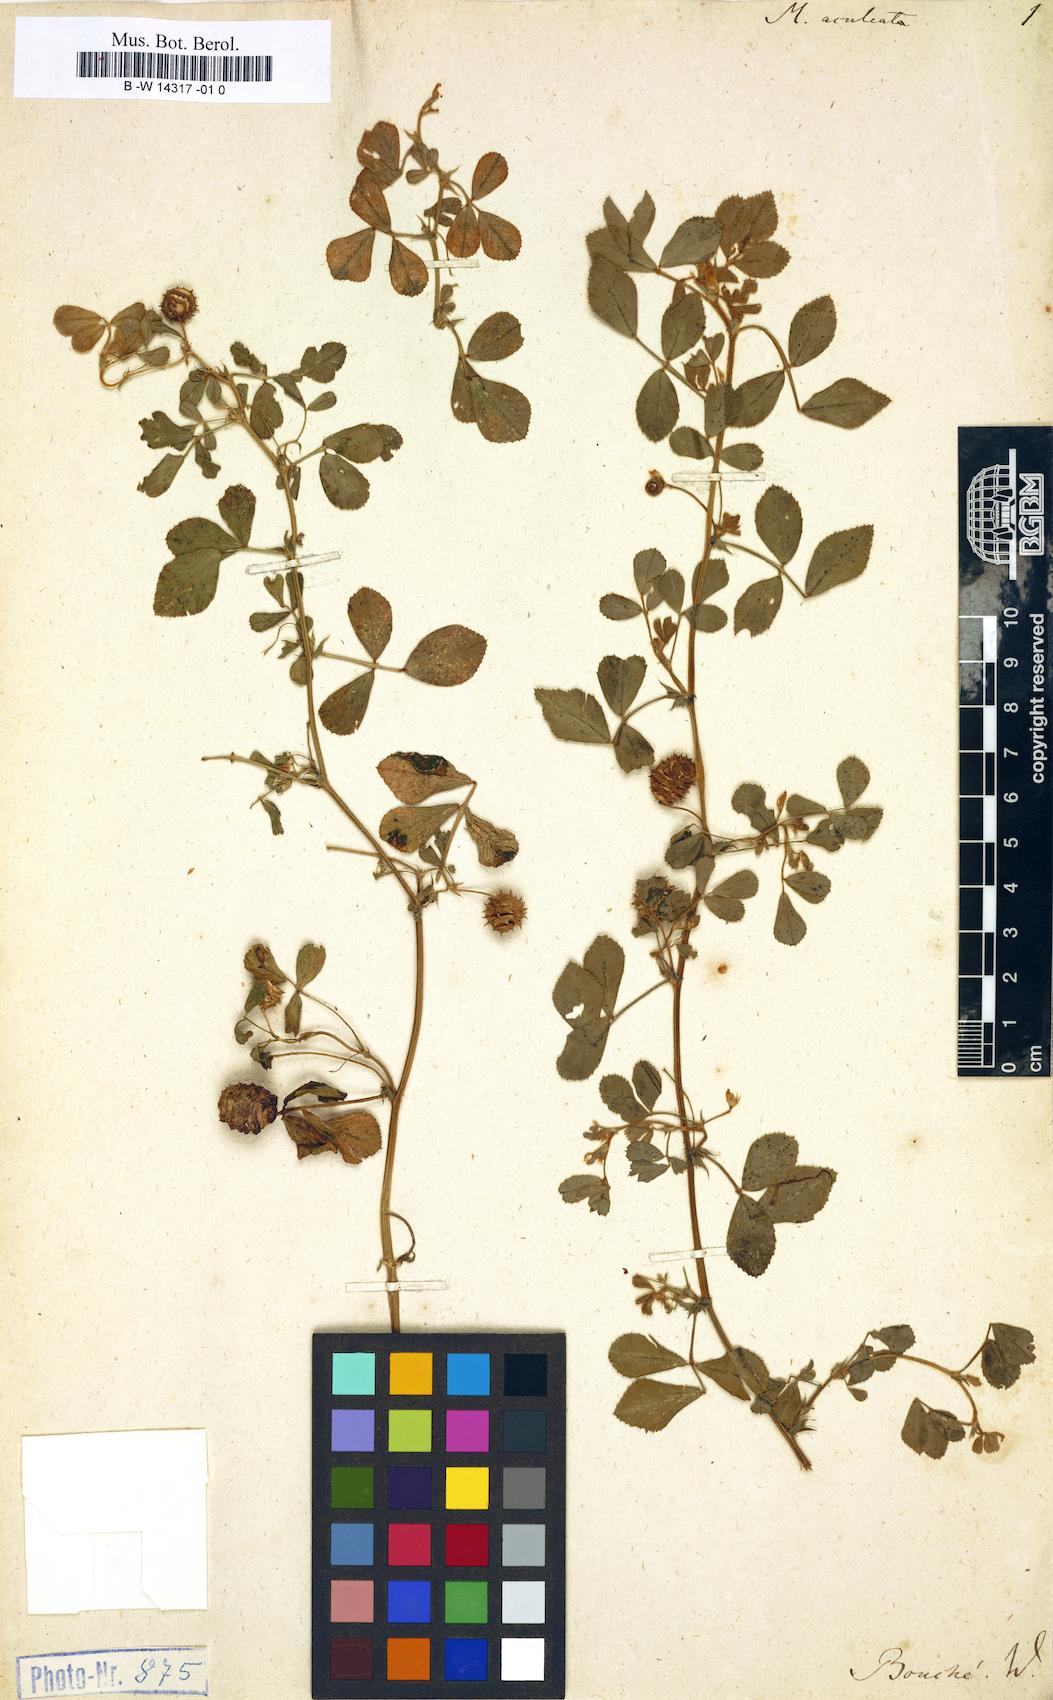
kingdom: Plantae
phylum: Tracheophyta
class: Magnoliopsida
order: Fabales
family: Fabaceae
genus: Medicago
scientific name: Medicago doliata
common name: Keg medic
